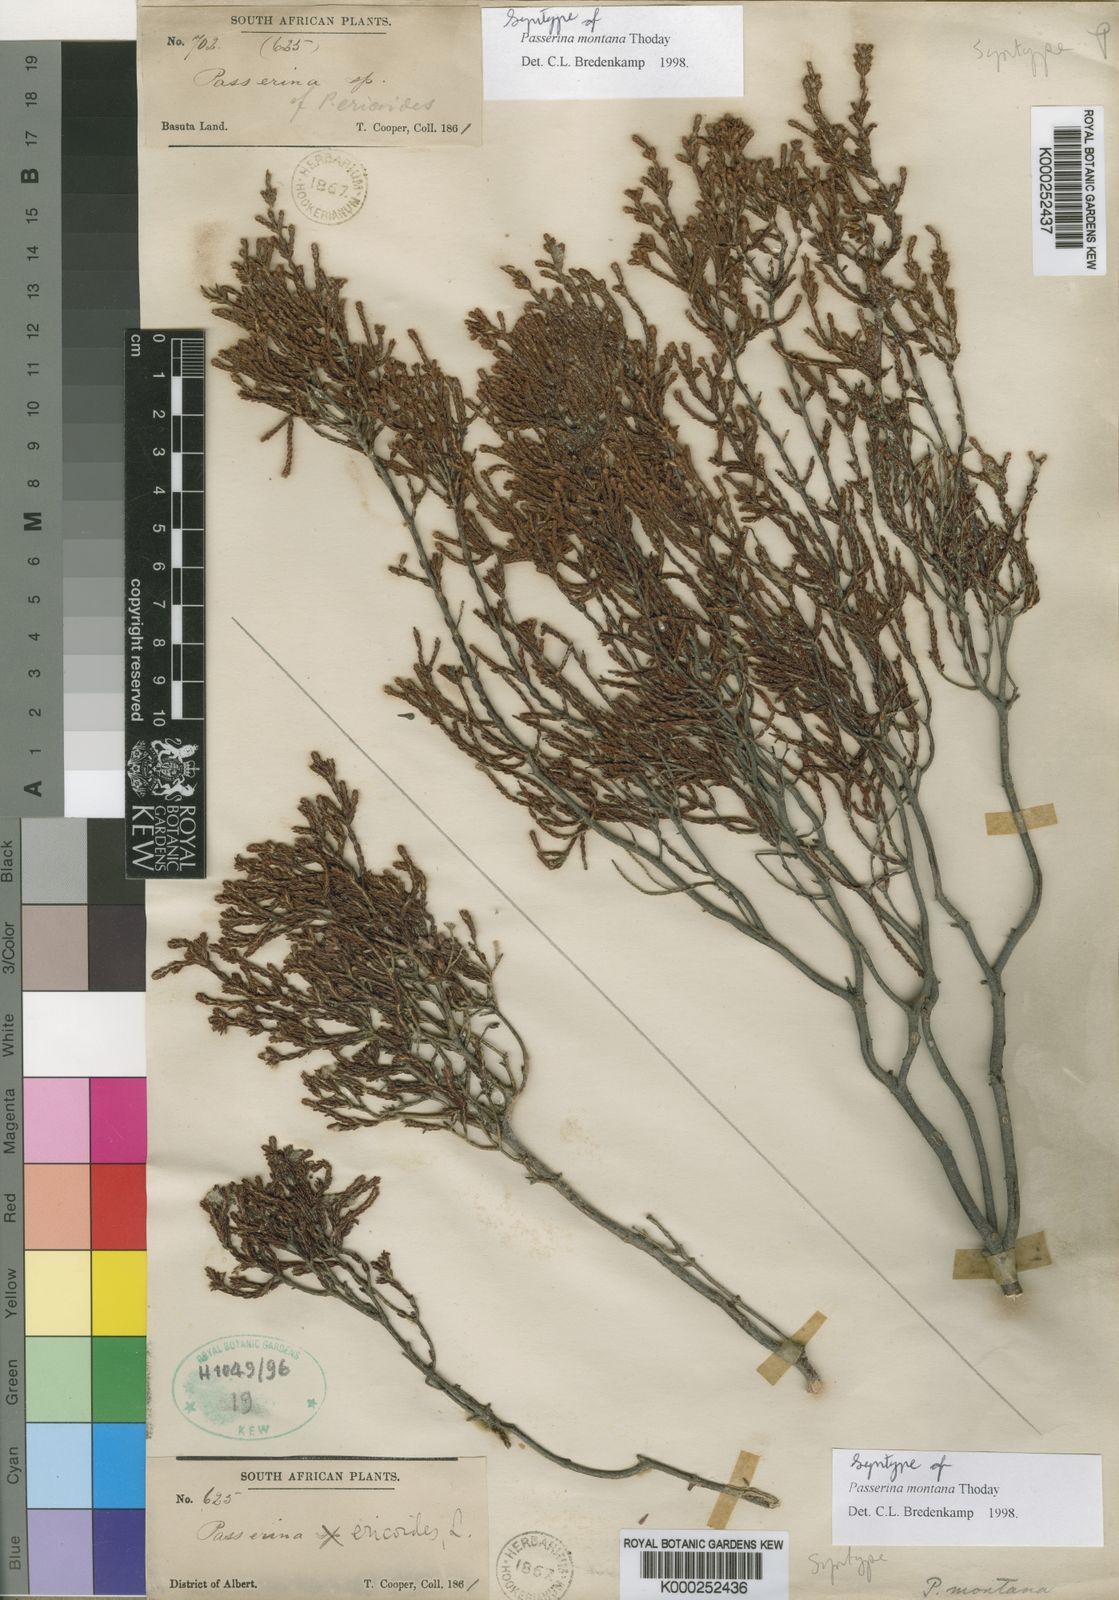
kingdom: Plantae
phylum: Tracheophyta
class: Magnoliopsida
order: Malvales
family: Thymelaeaceae
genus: Passerina
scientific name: Passerina montana
